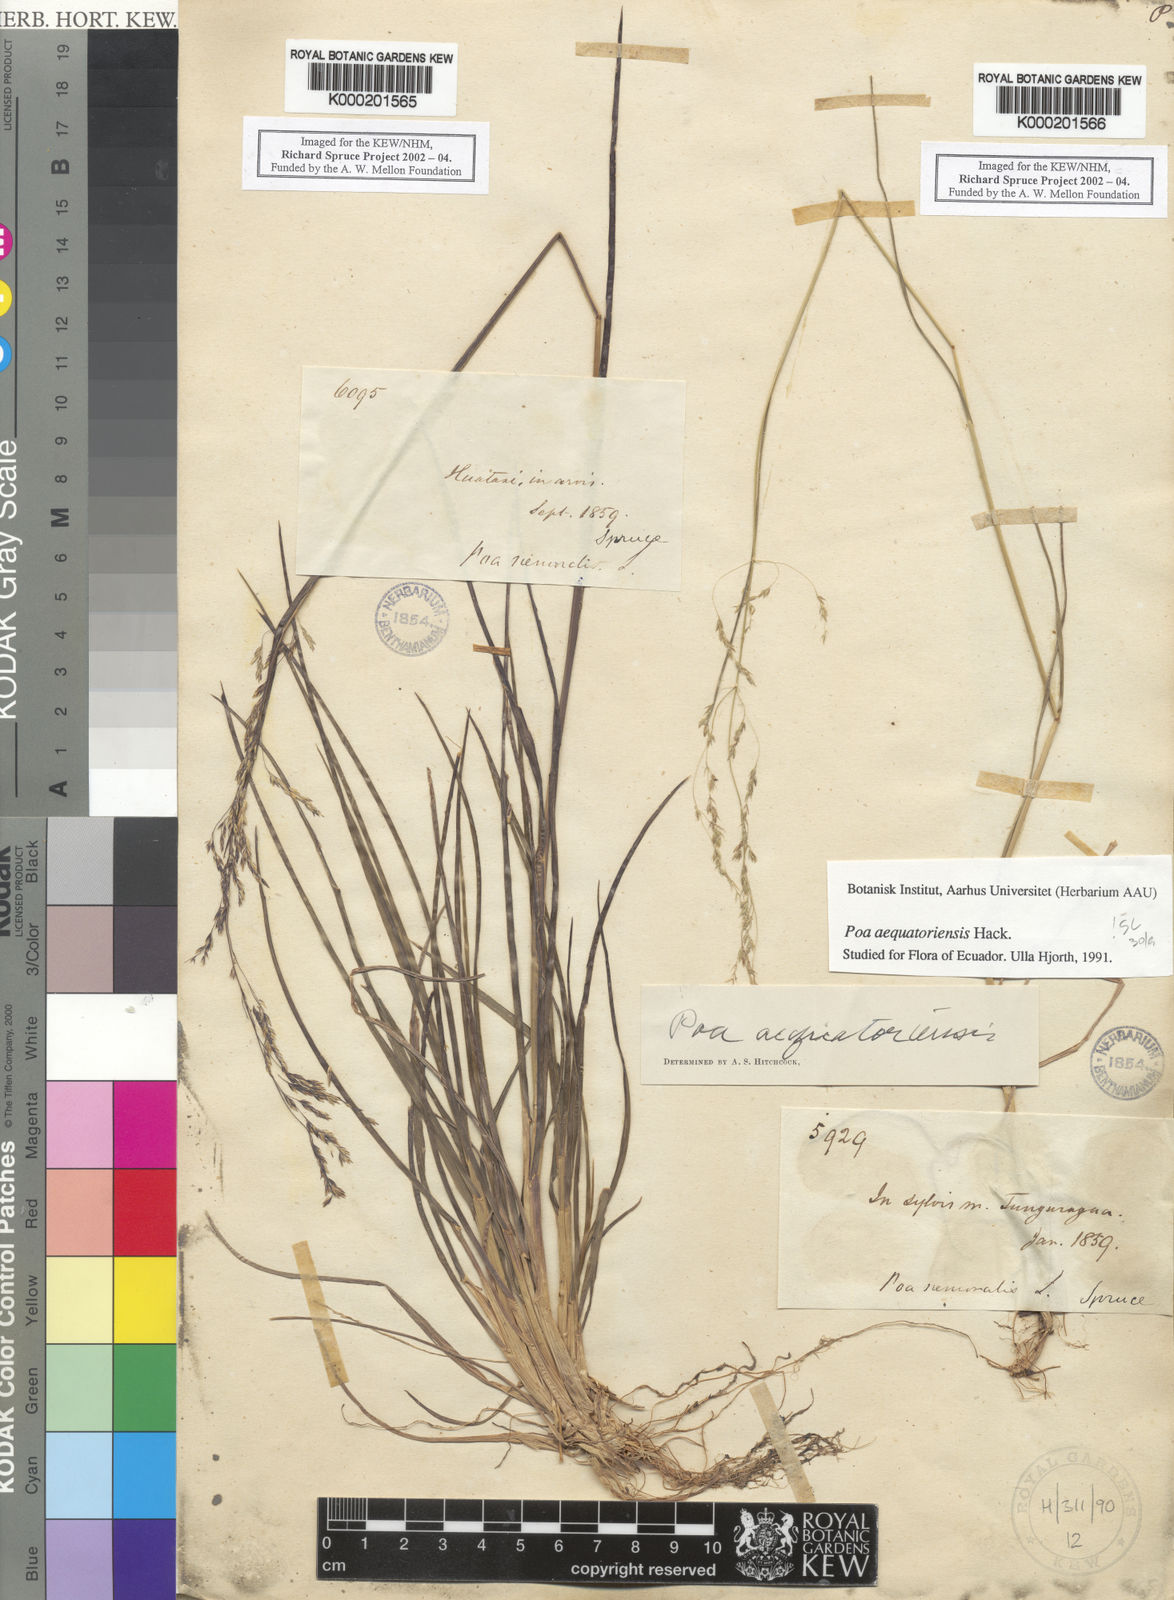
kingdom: Plantae
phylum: Tracheophyta
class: Liliopsida
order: Poales
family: Poaceae
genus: Poa
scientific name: Poa aequatoriensis
